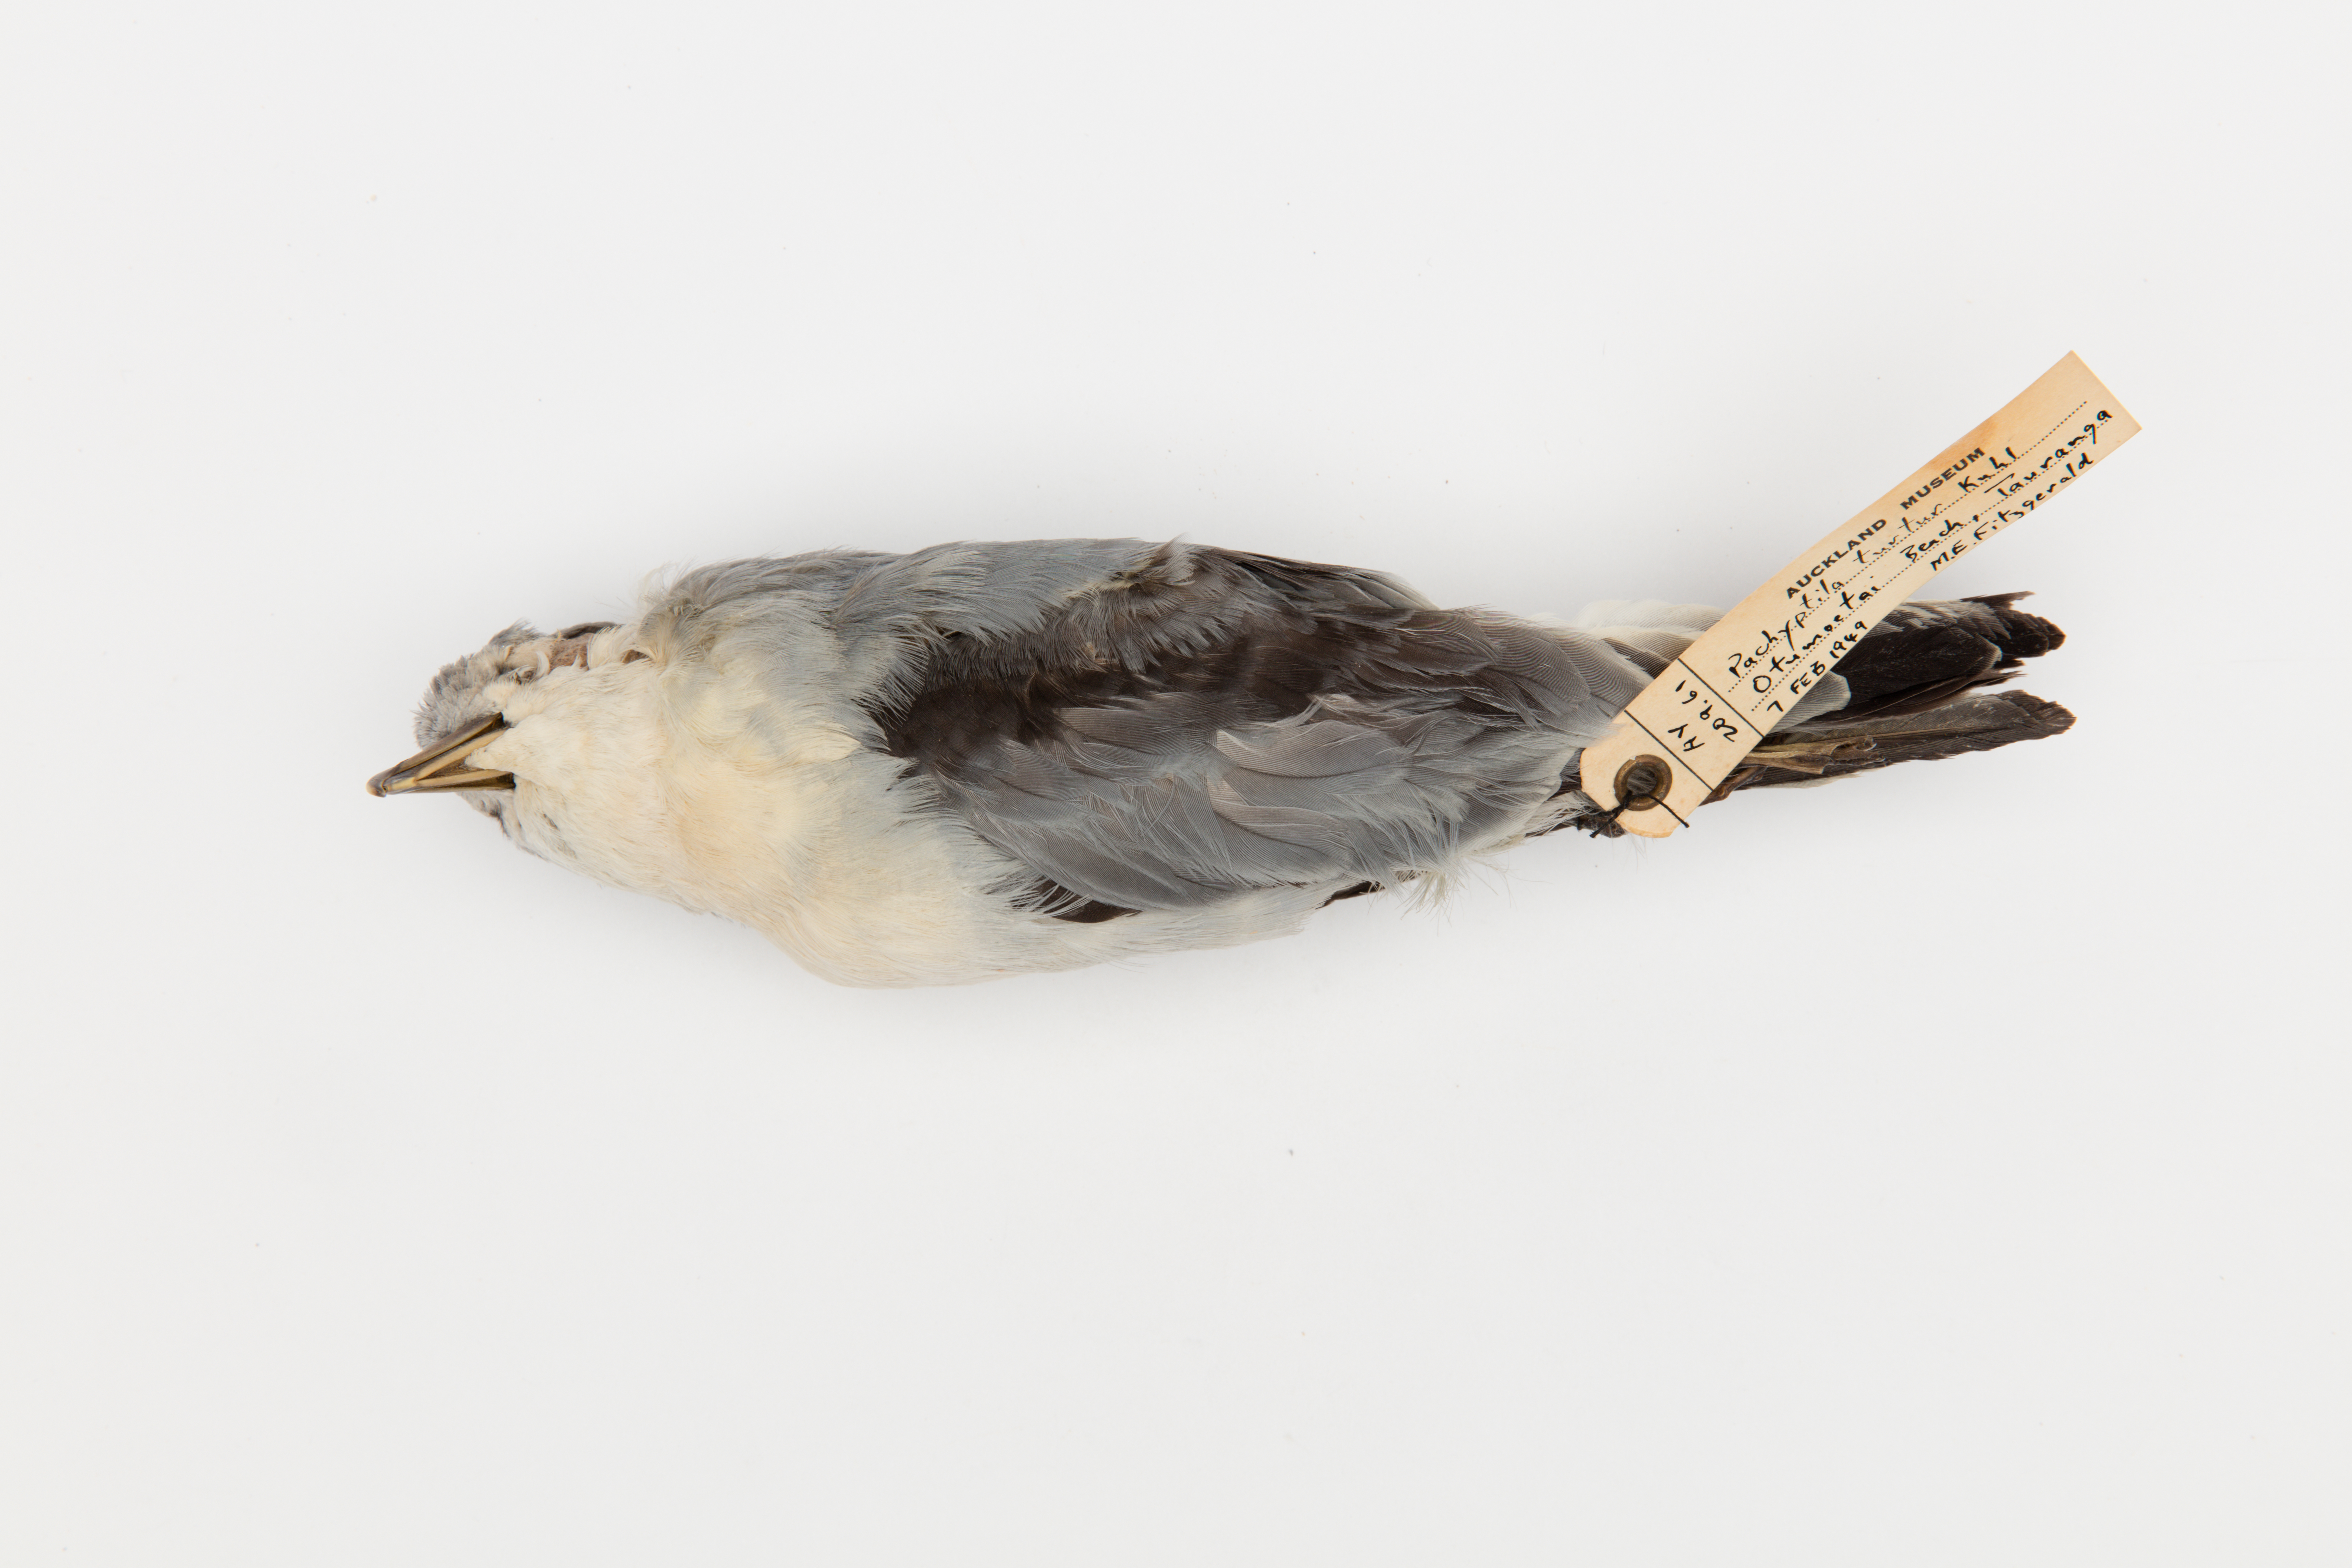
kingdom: Animalia
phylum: Chordata
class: Aves
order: Procellariiformes
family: Procellariidae
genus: Pachyptila
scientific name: Pachyptila turtur
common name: Fairy prion
